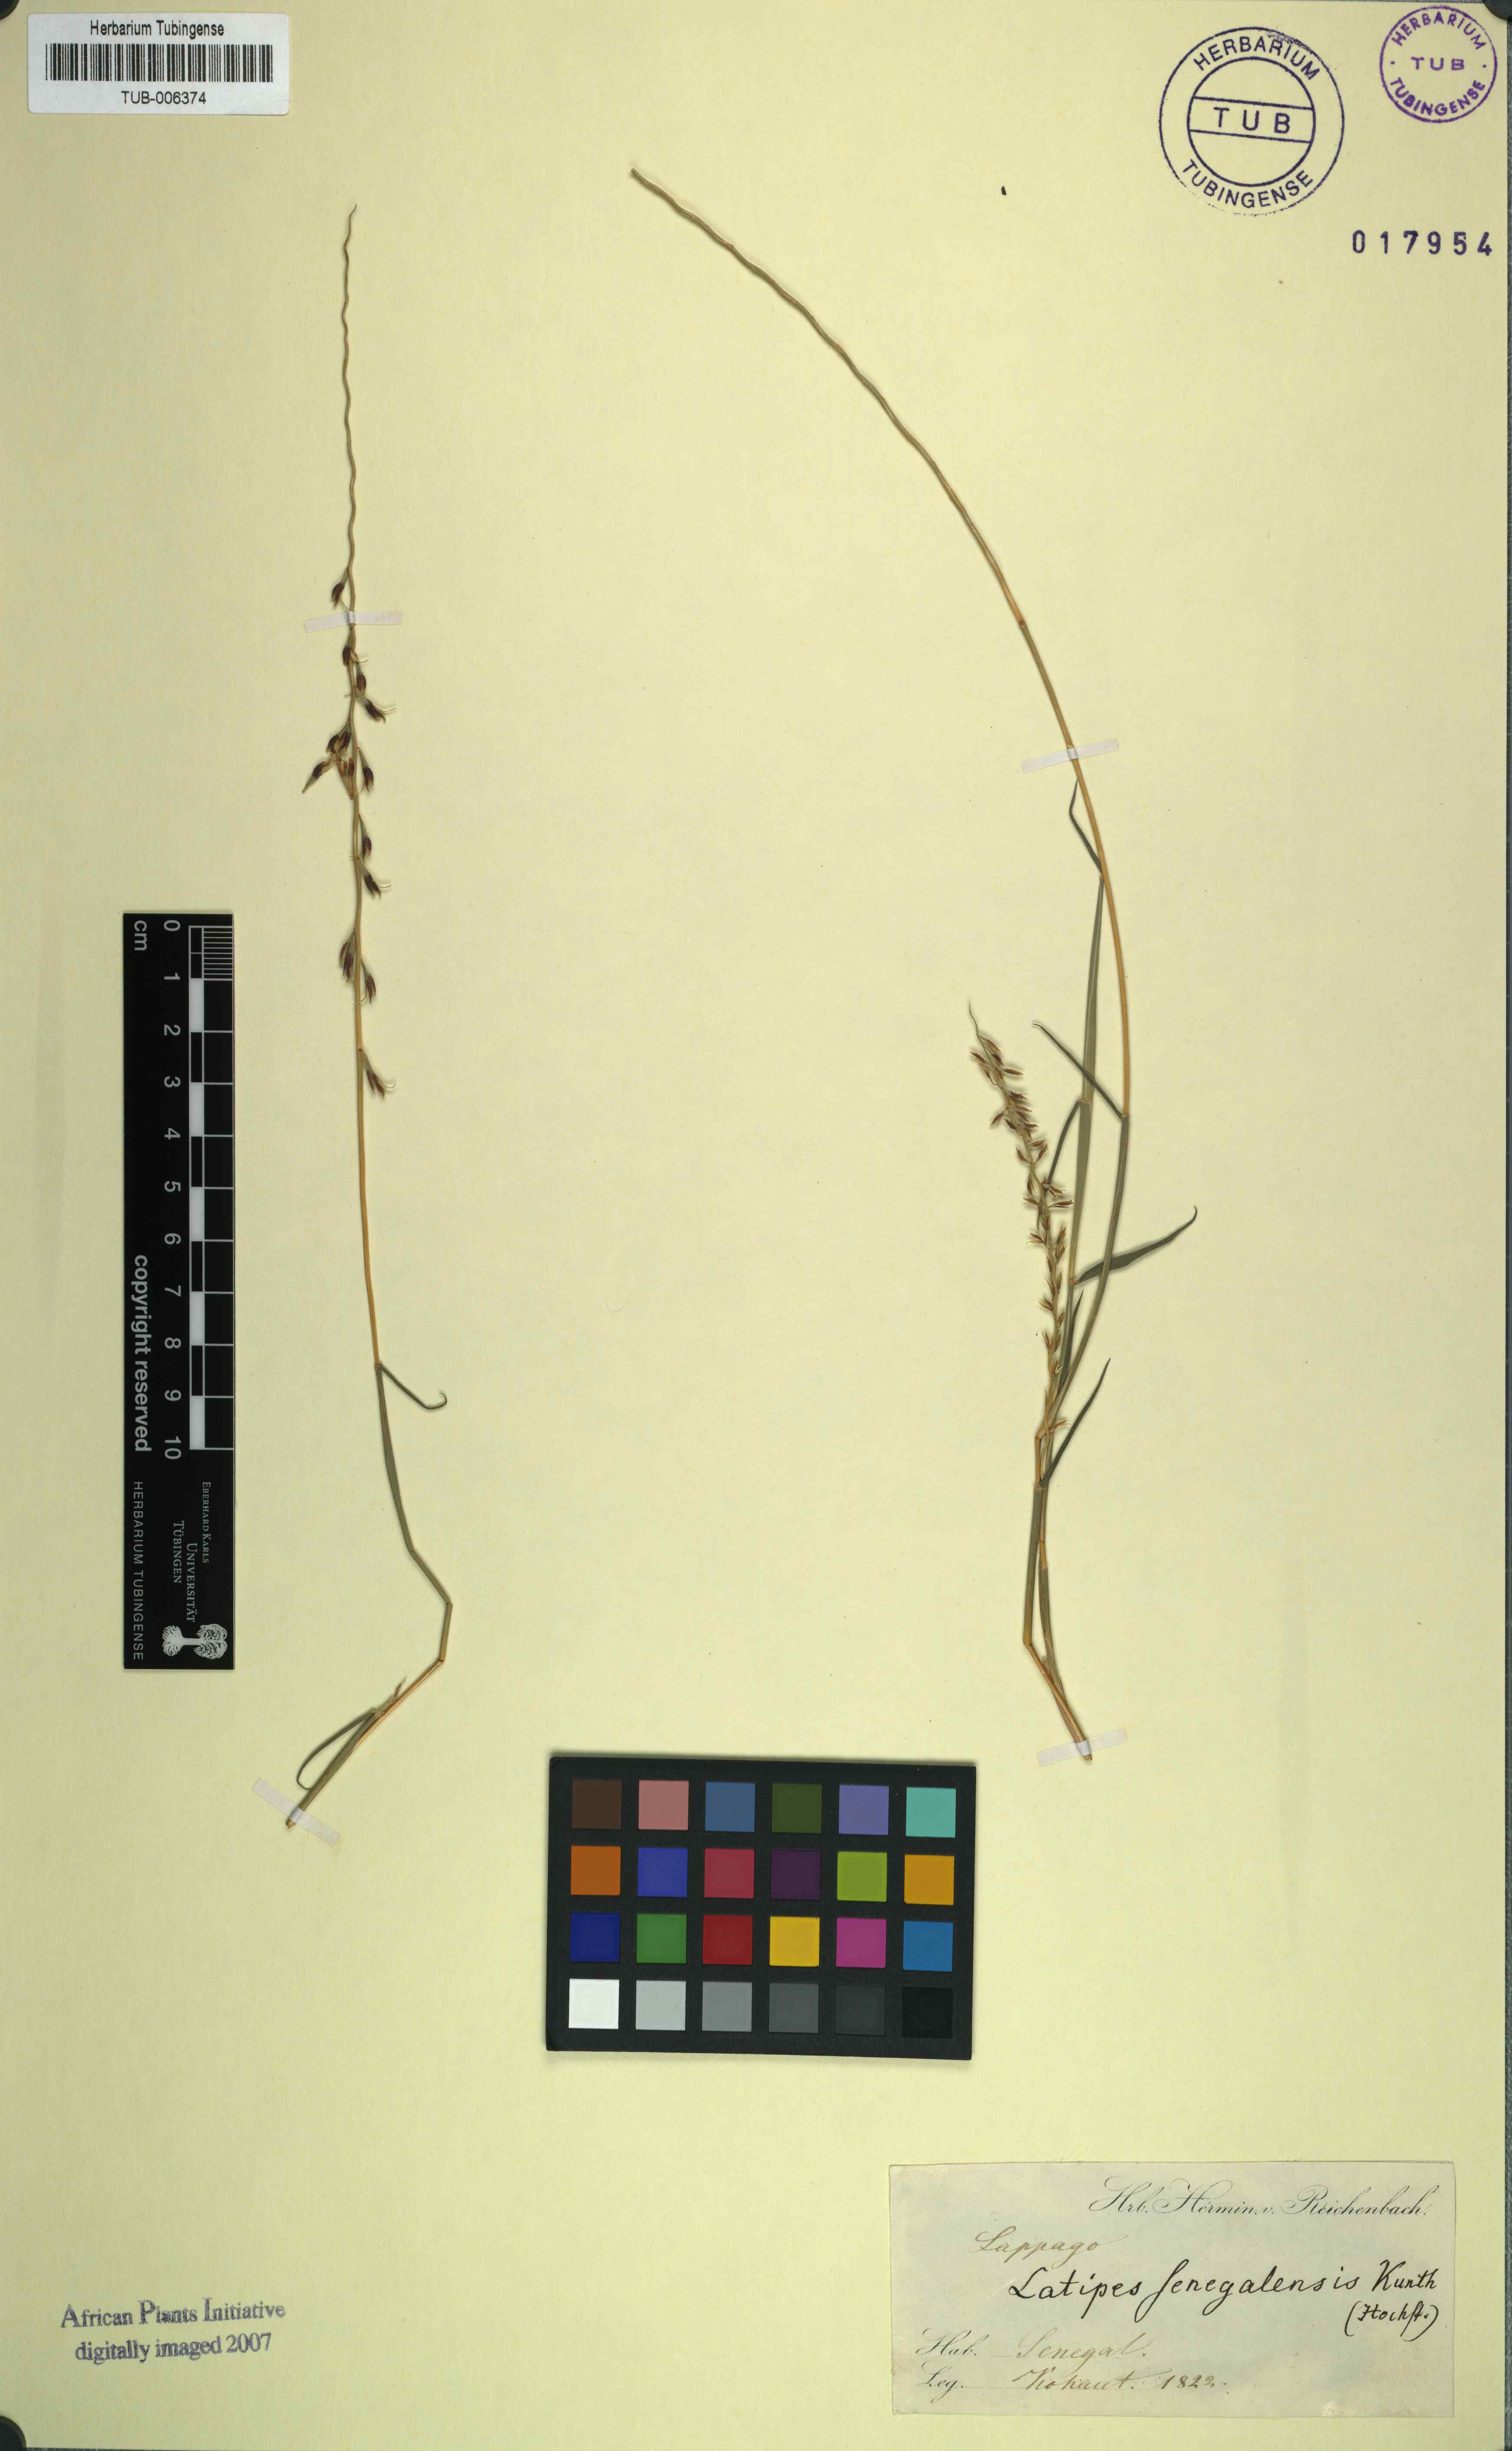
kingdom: Plantae
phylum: Tracheophyta
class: Liliopsida
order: Poales
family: Poaceae
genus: Tribolium
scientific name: Tribolium
